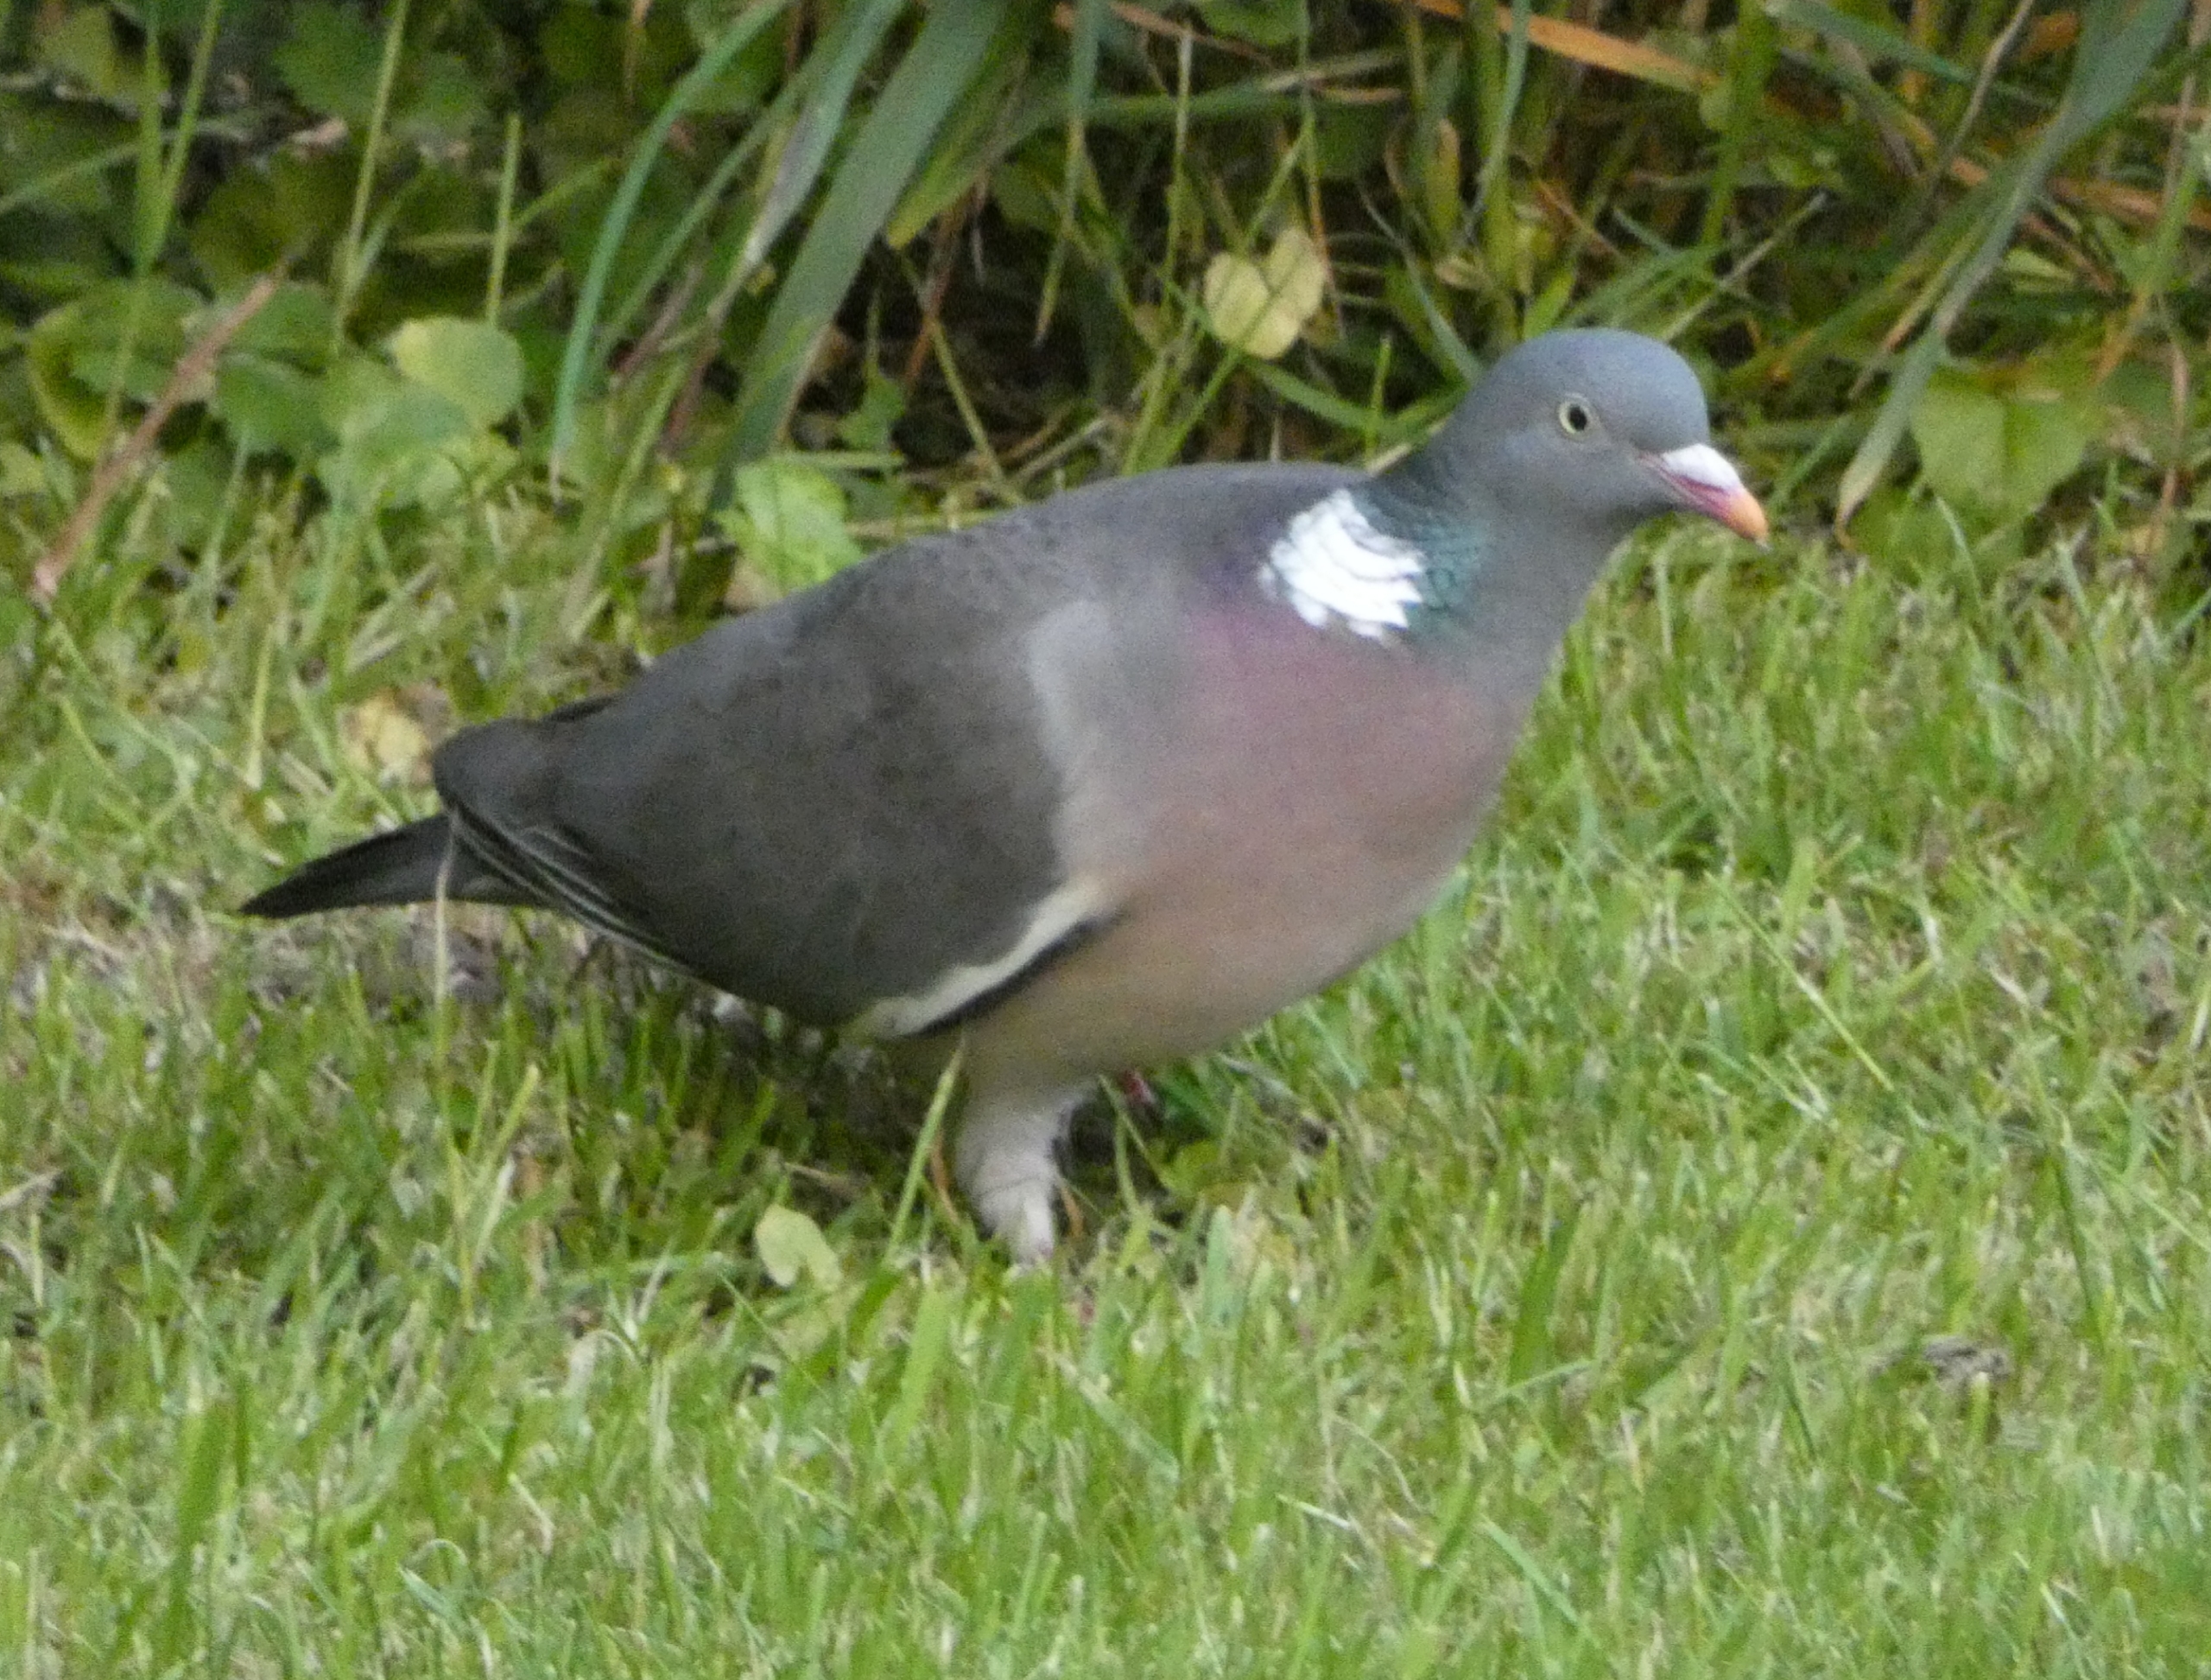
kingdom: Animalia
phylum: Chordata
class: Aves
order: Columbiformes
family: Columbidae
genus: Columba
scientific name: Columba palumbus
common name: Ringdue
